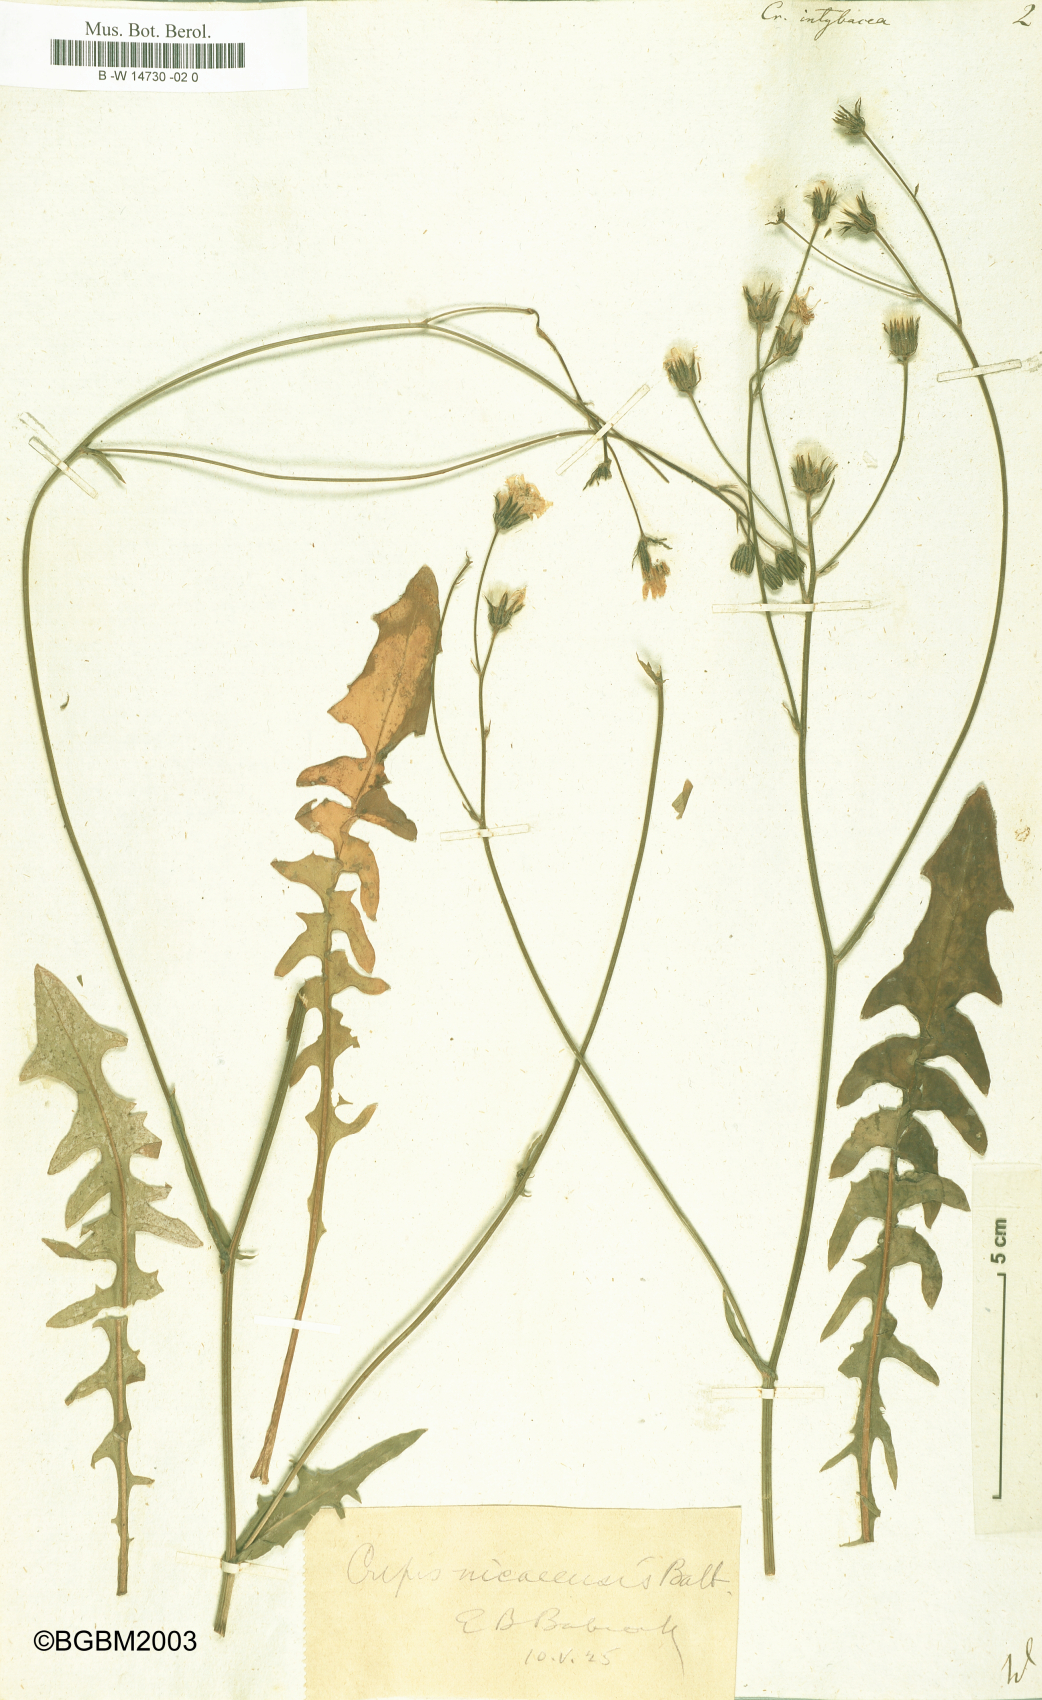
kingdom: Plantae
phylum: Tracheophyta
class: Magnoliopsida
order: Asterales
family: Asteraceae
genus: Crepis
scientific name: Crepis vesicaria
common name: Beaked hawksbeard
